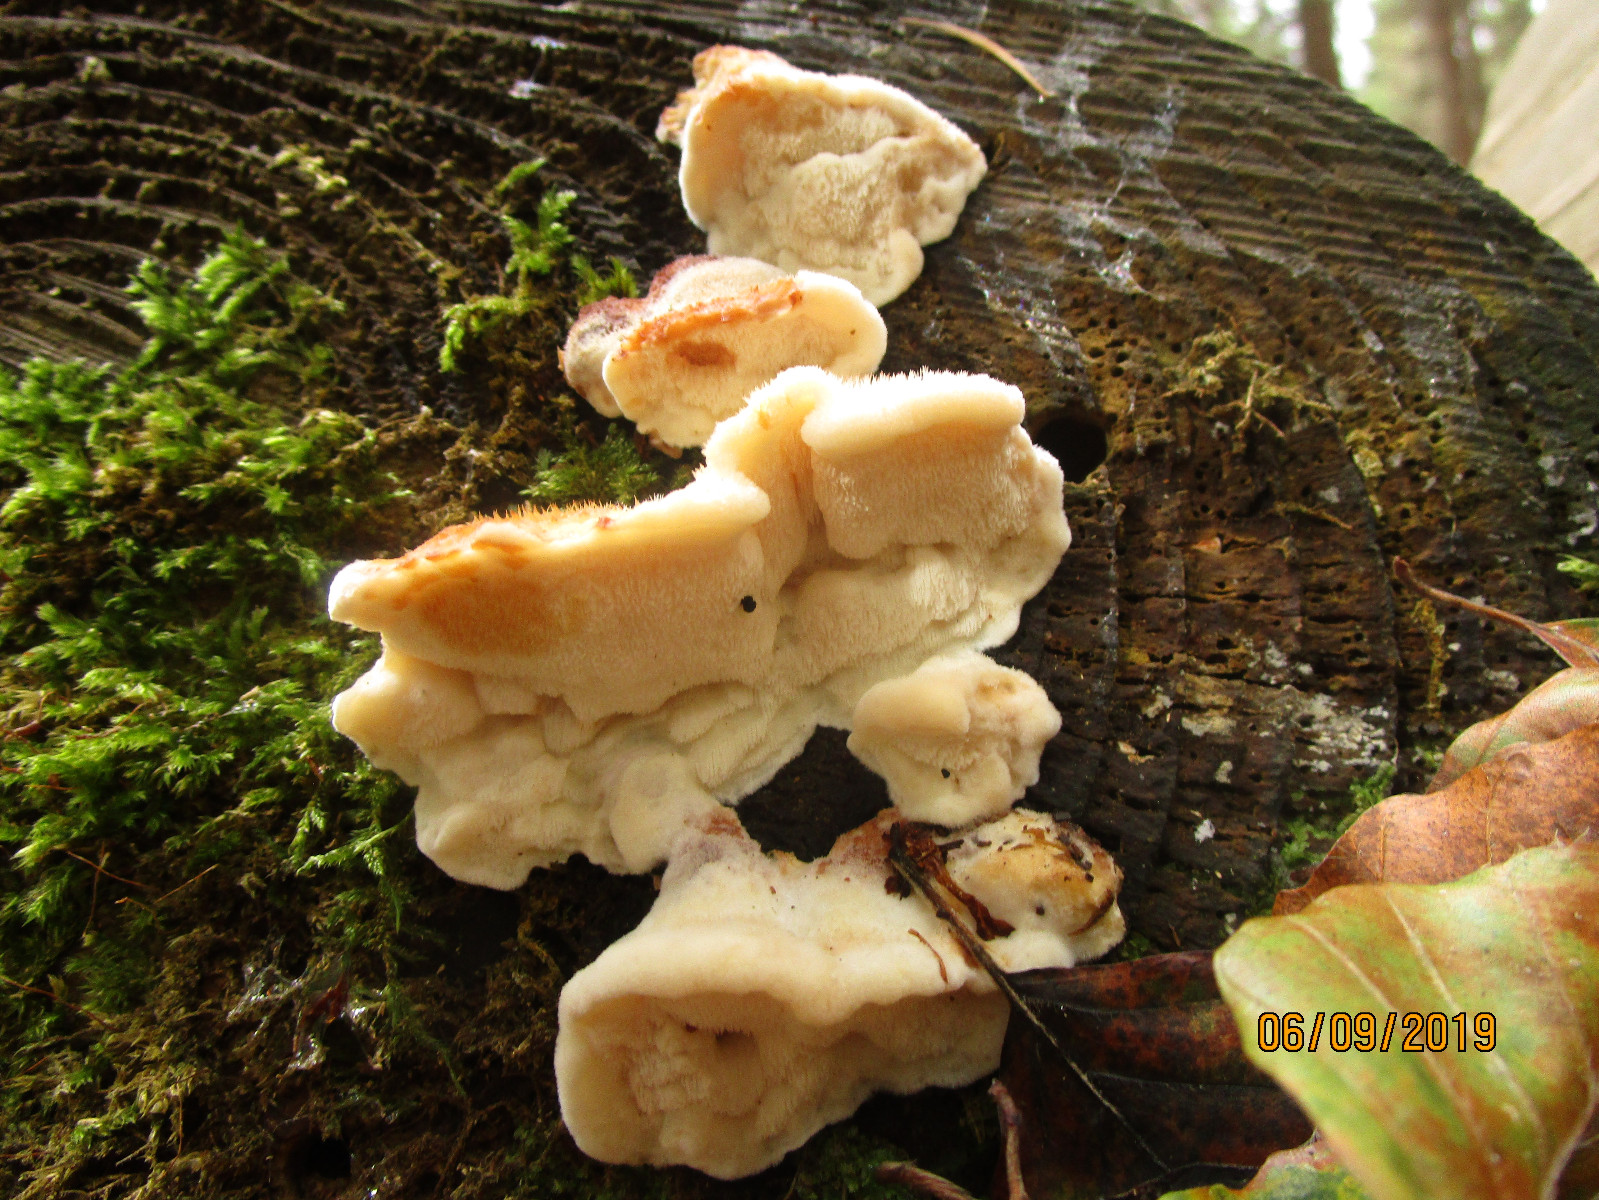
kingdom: Fungi
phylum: Basidiomycota
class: Agaricomycetes
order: Polyporales
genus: Fuscopostia
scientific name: Fuscopostia fragilis
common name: brunende kødporesvamp
